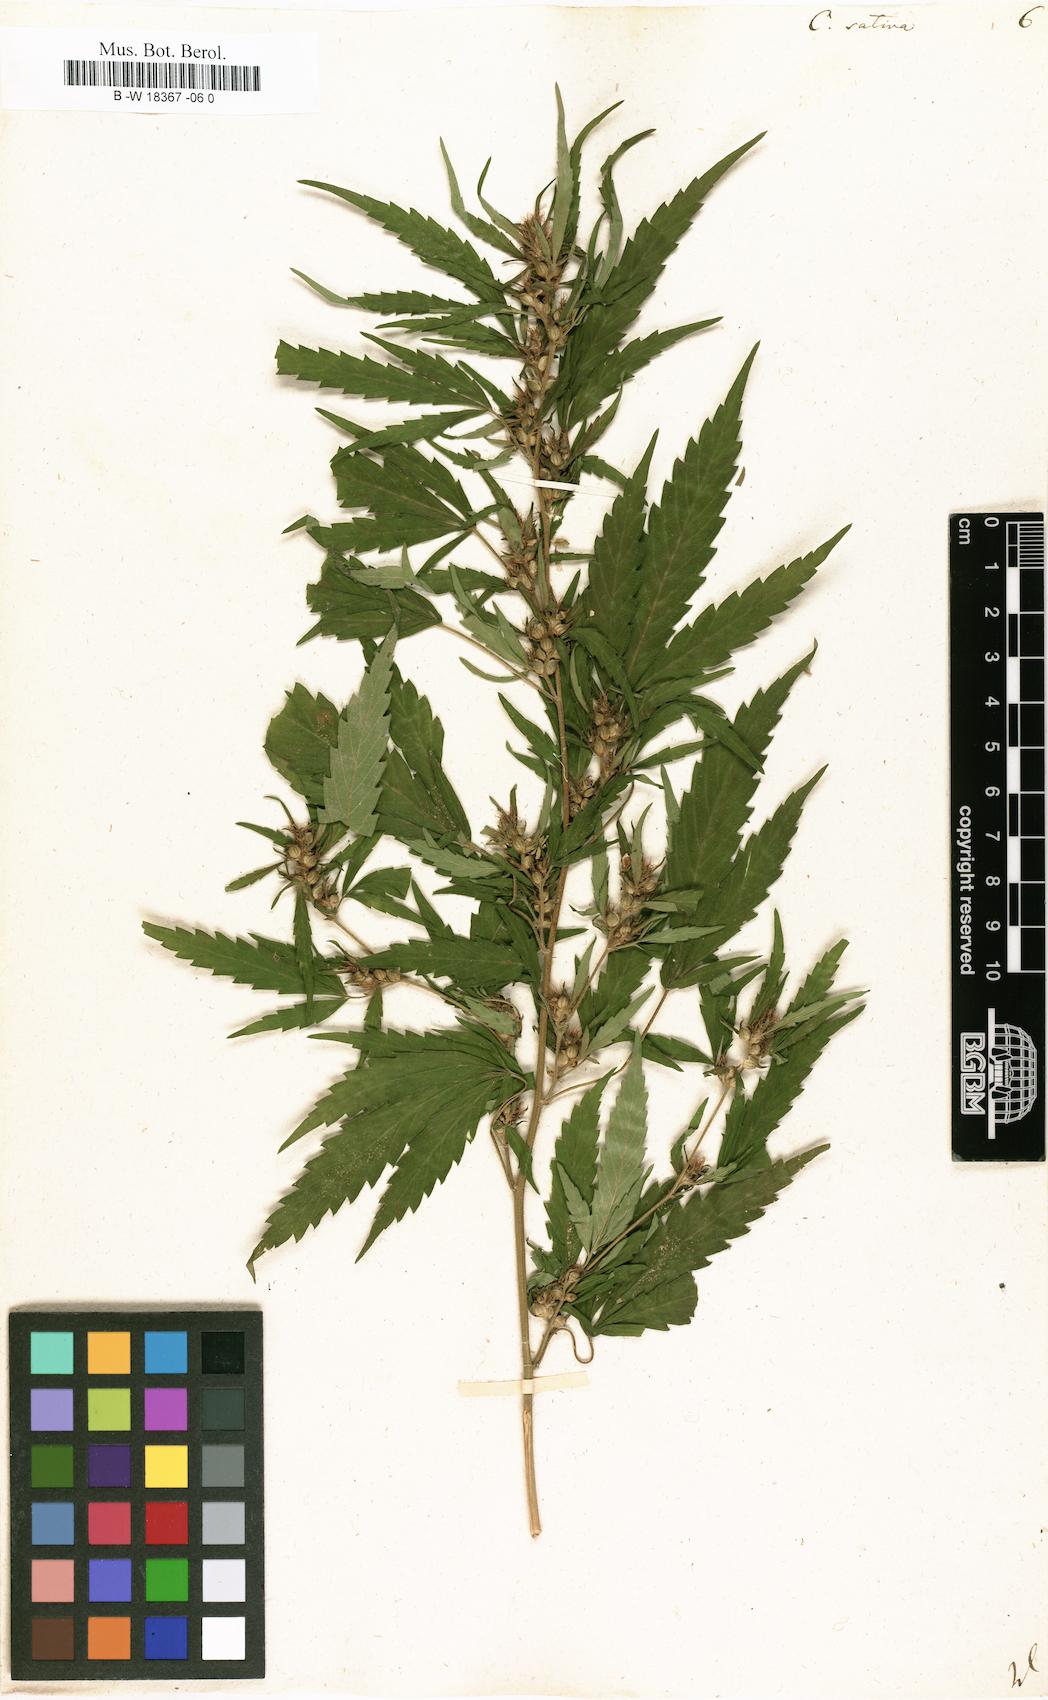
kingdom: Plantae
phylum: Tracheophyta
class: Magnoliopsida
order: Rosales
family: Cannabaceae
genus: Cannabis
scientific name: Cannabis sativa
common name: Hemp
